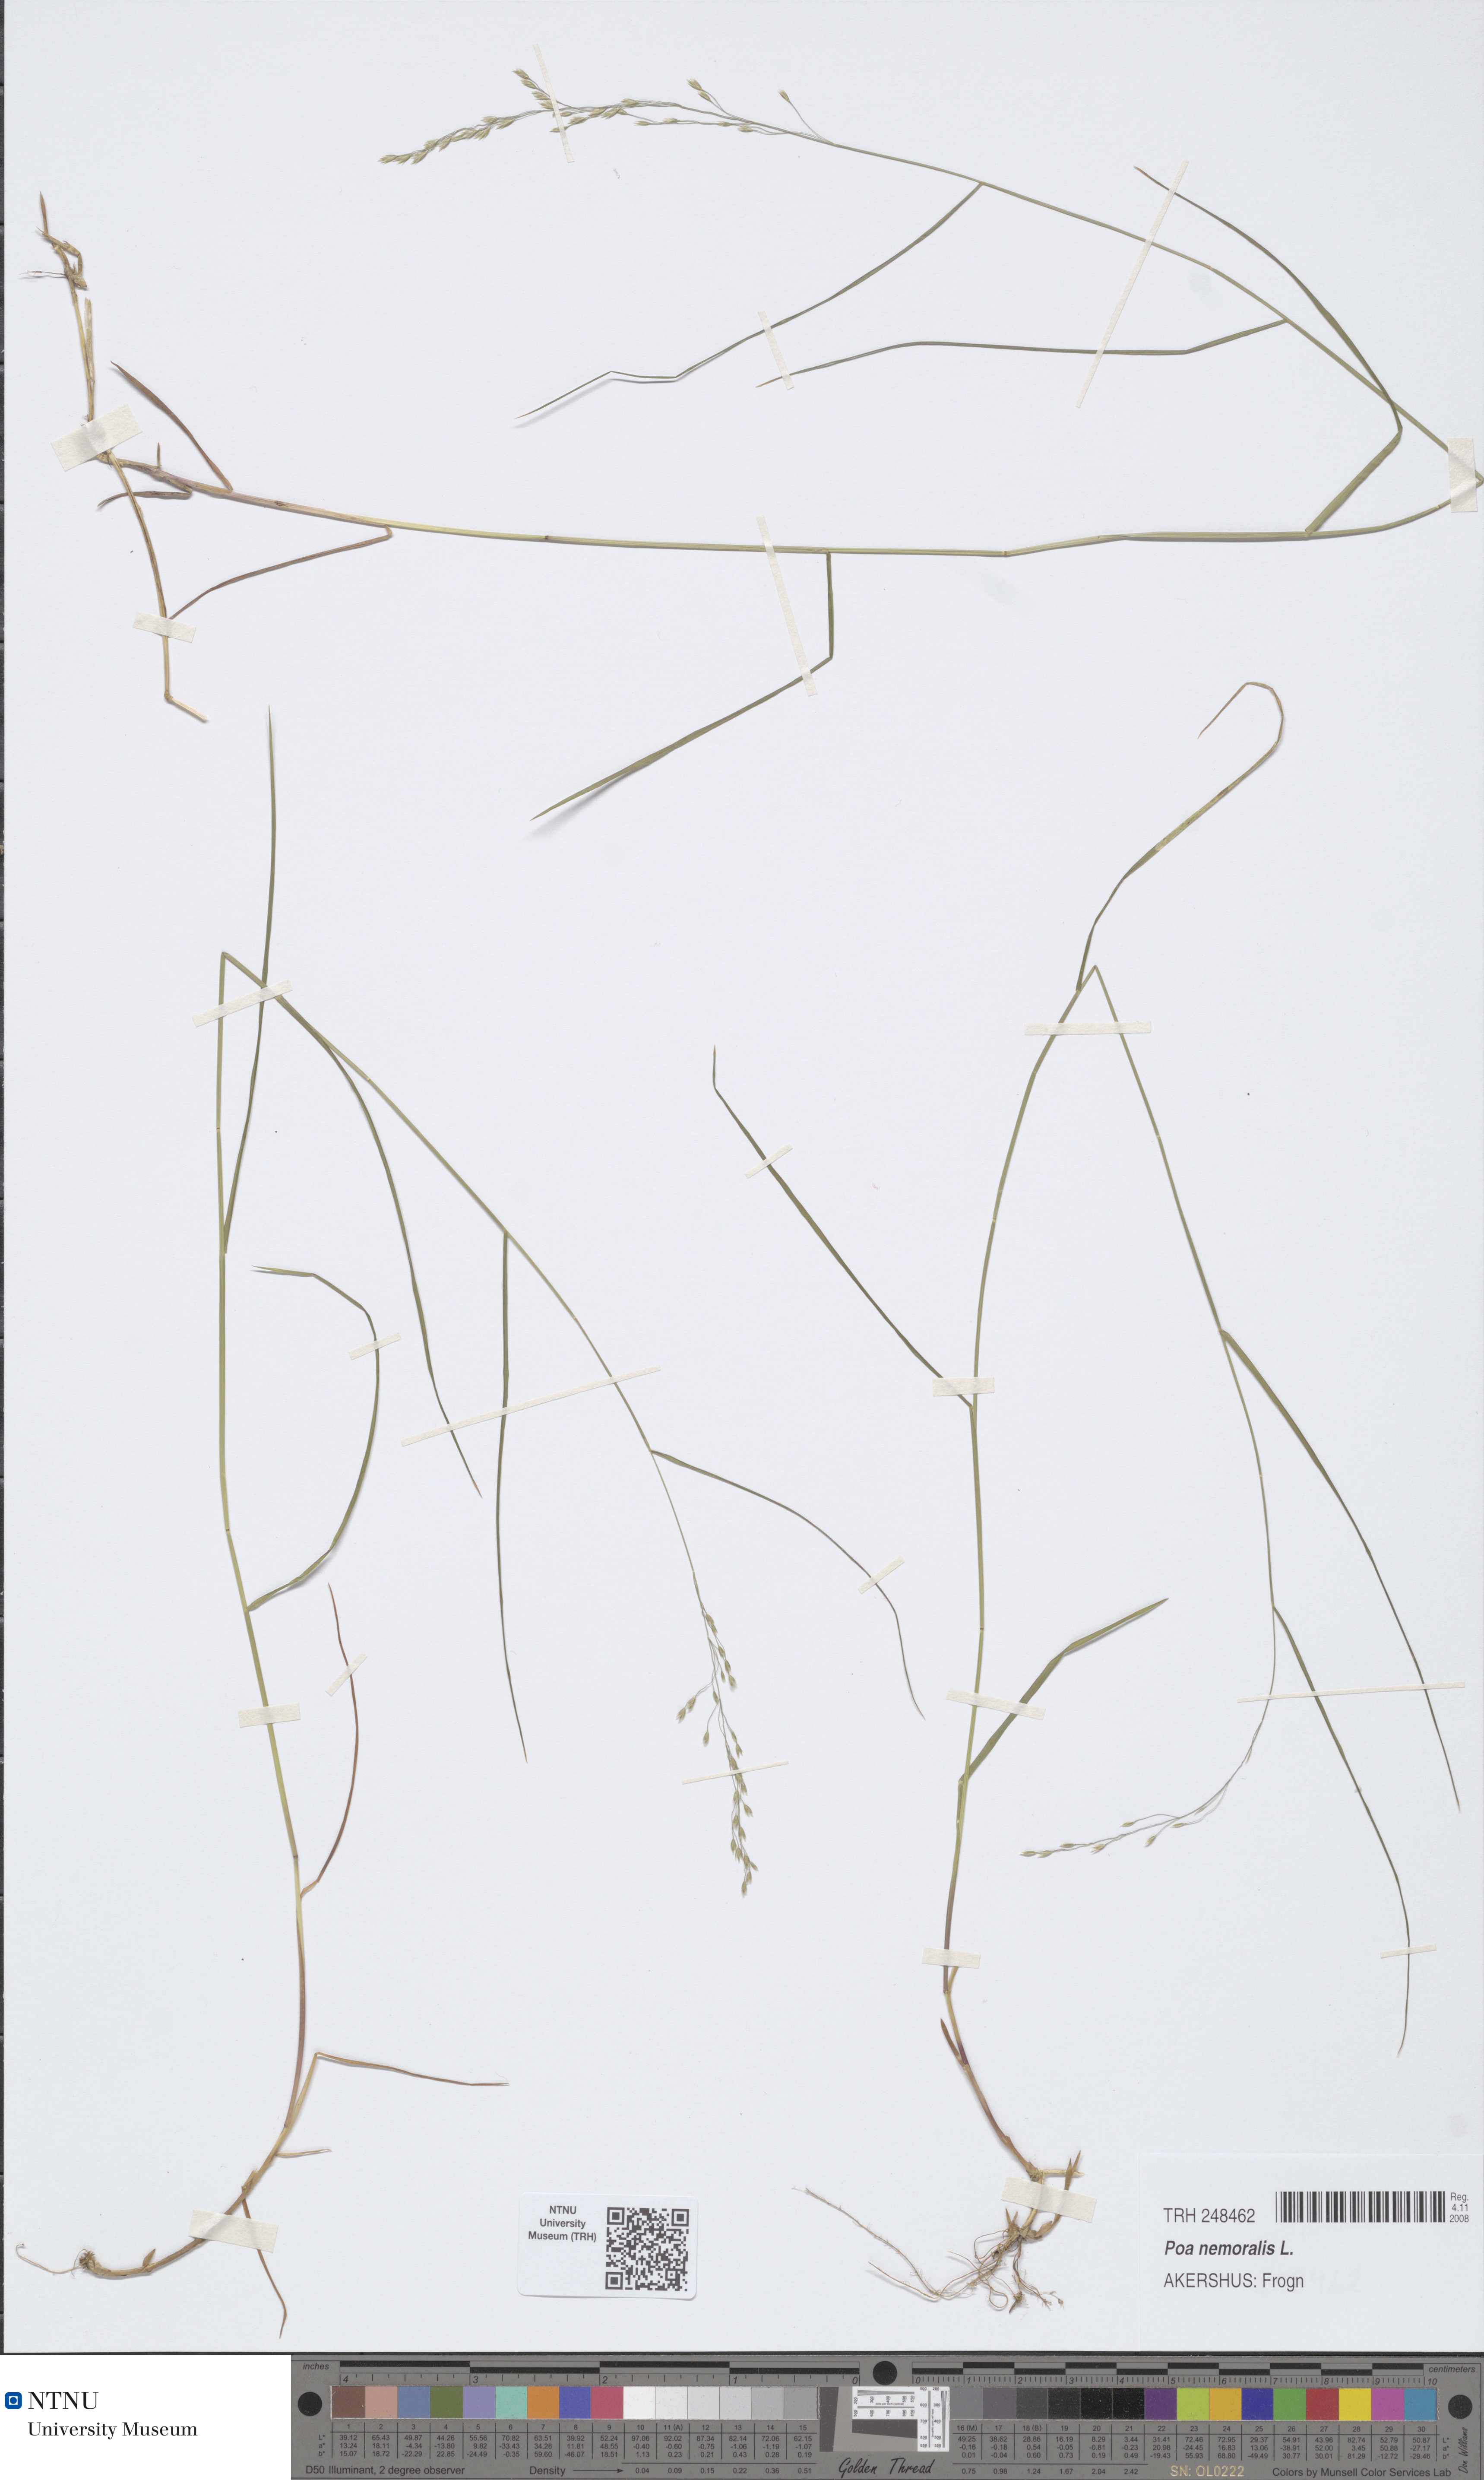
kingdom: Plantae
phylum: Tracheophyta
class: Liliopsida
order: Poales
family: Poaceae
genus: Poa
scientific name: Poa nemoralis
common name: Wood bluegrass
